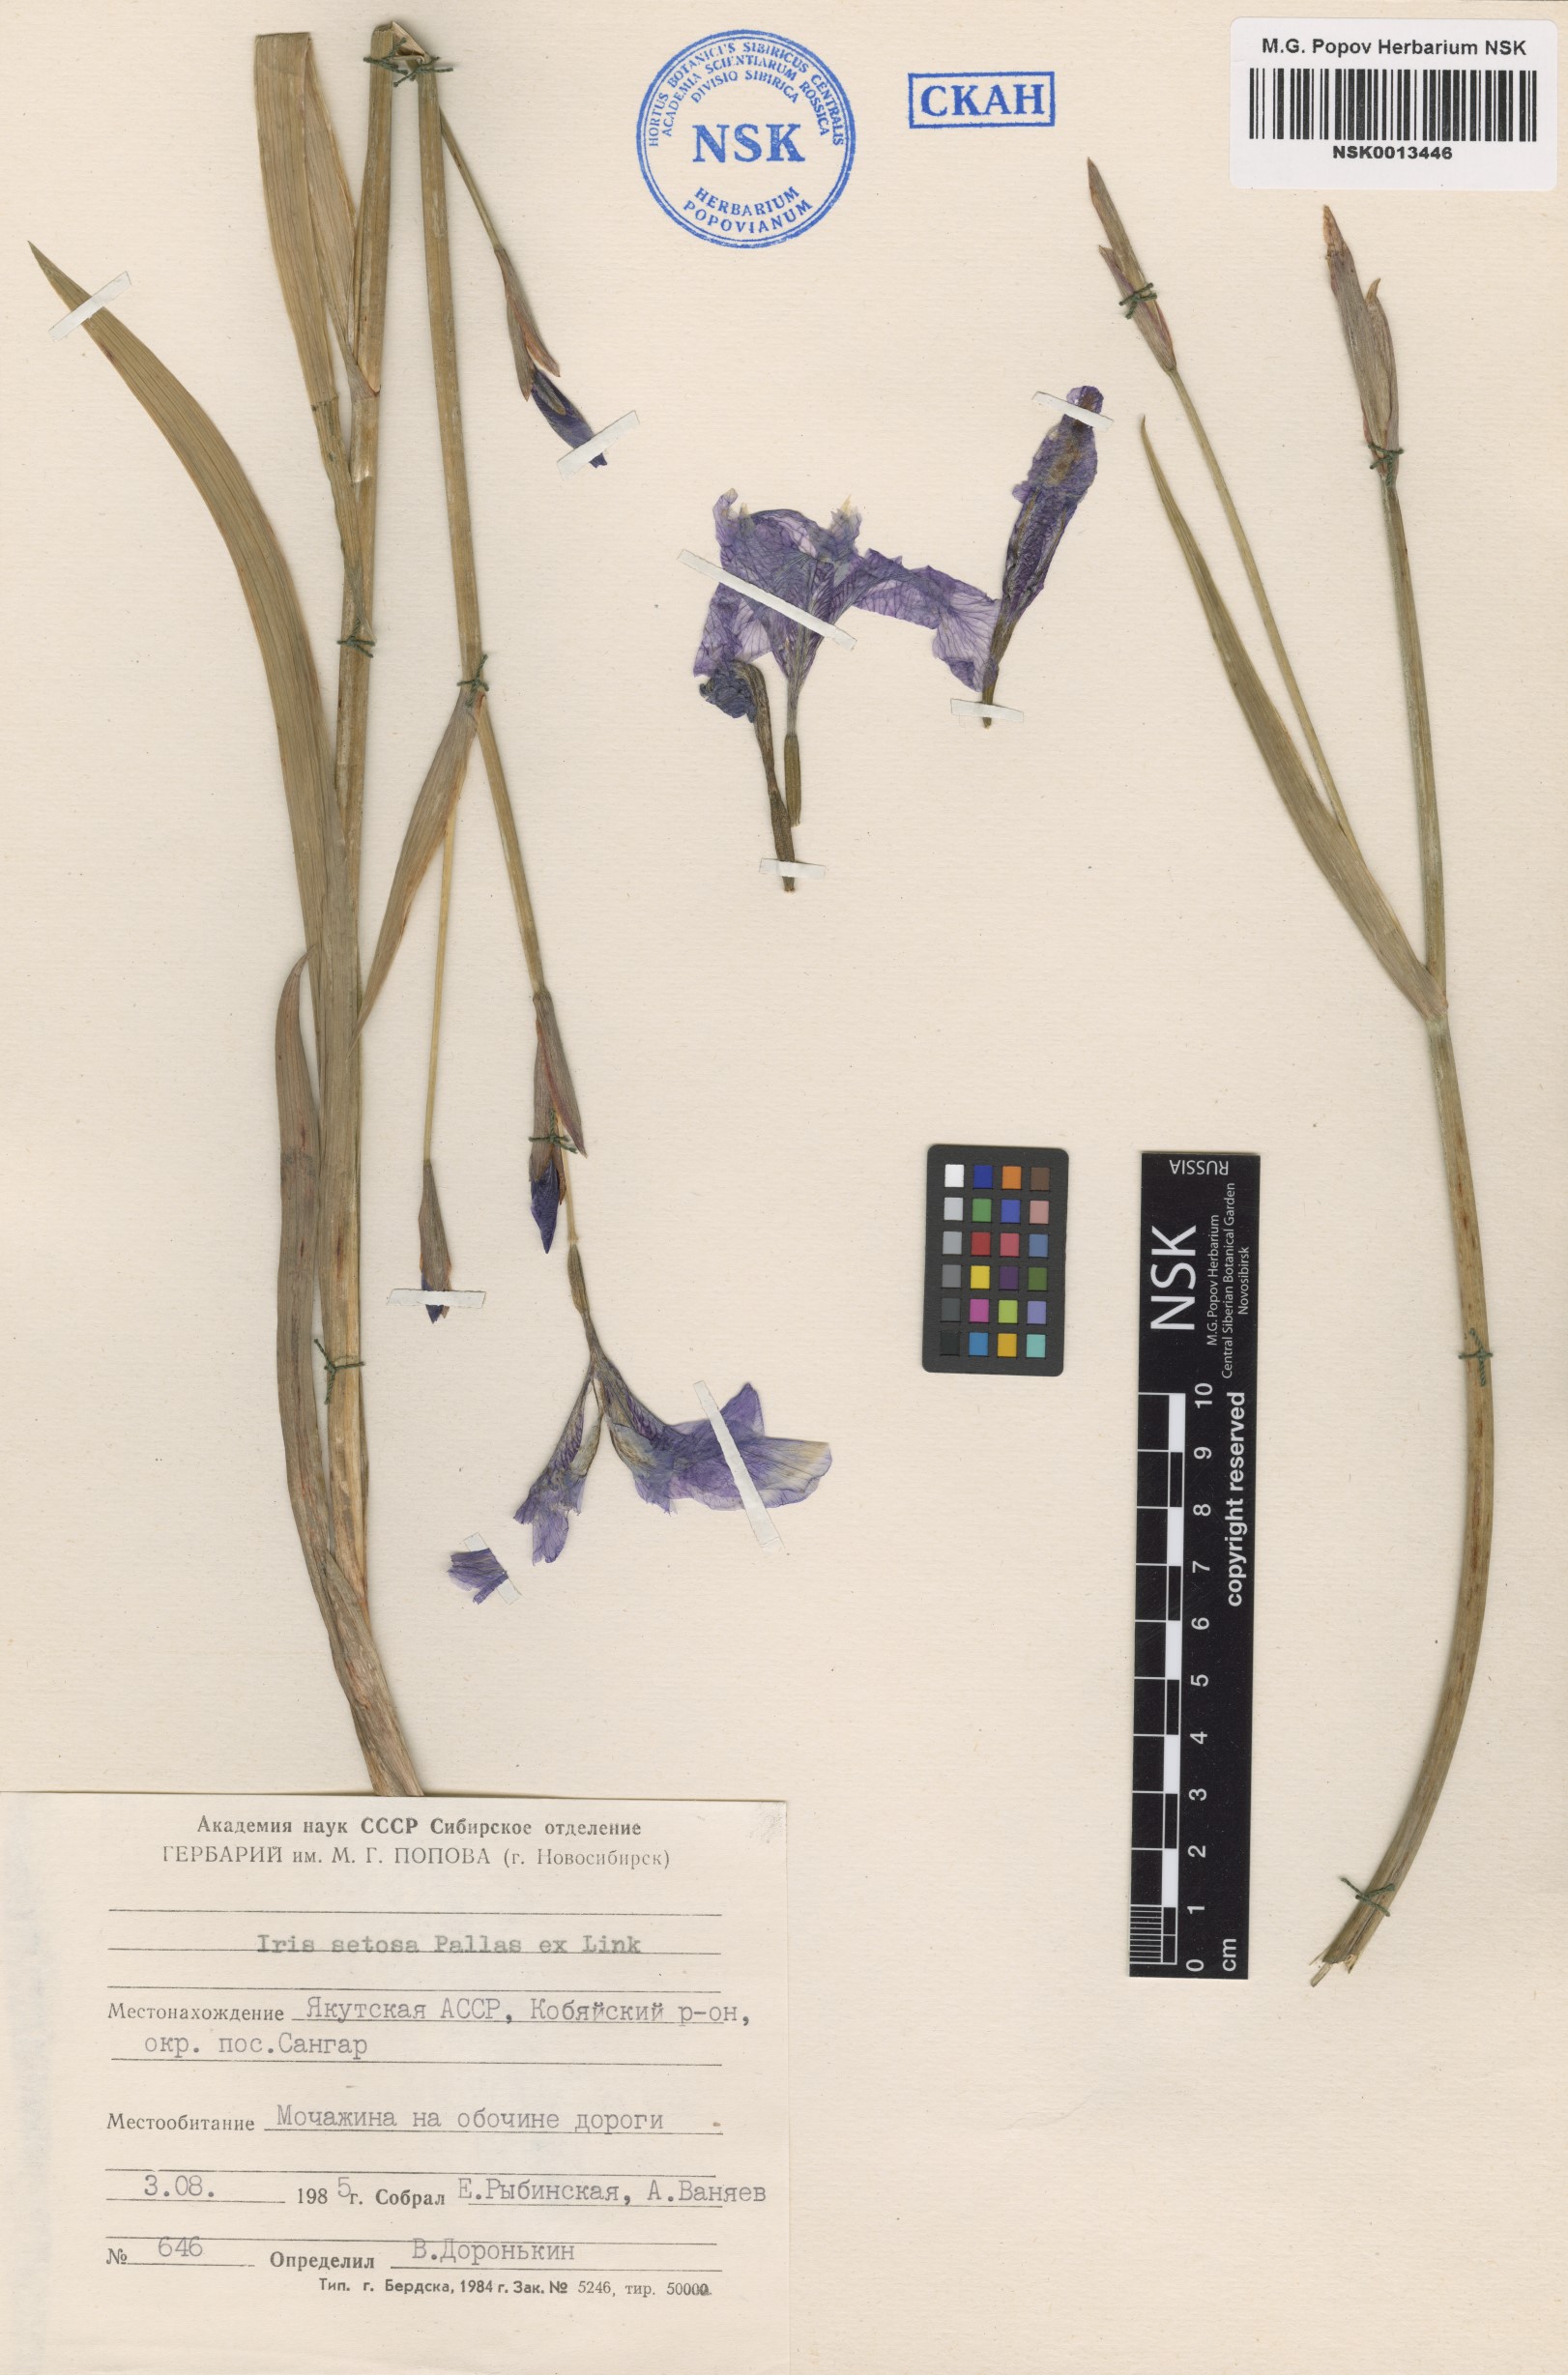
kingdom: Plantae
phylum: Tracheophyta
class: Liliopsida
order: Asparagales
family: Iridaceae
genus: Iris
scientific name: Iris setosa
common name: Arctic blue flag
